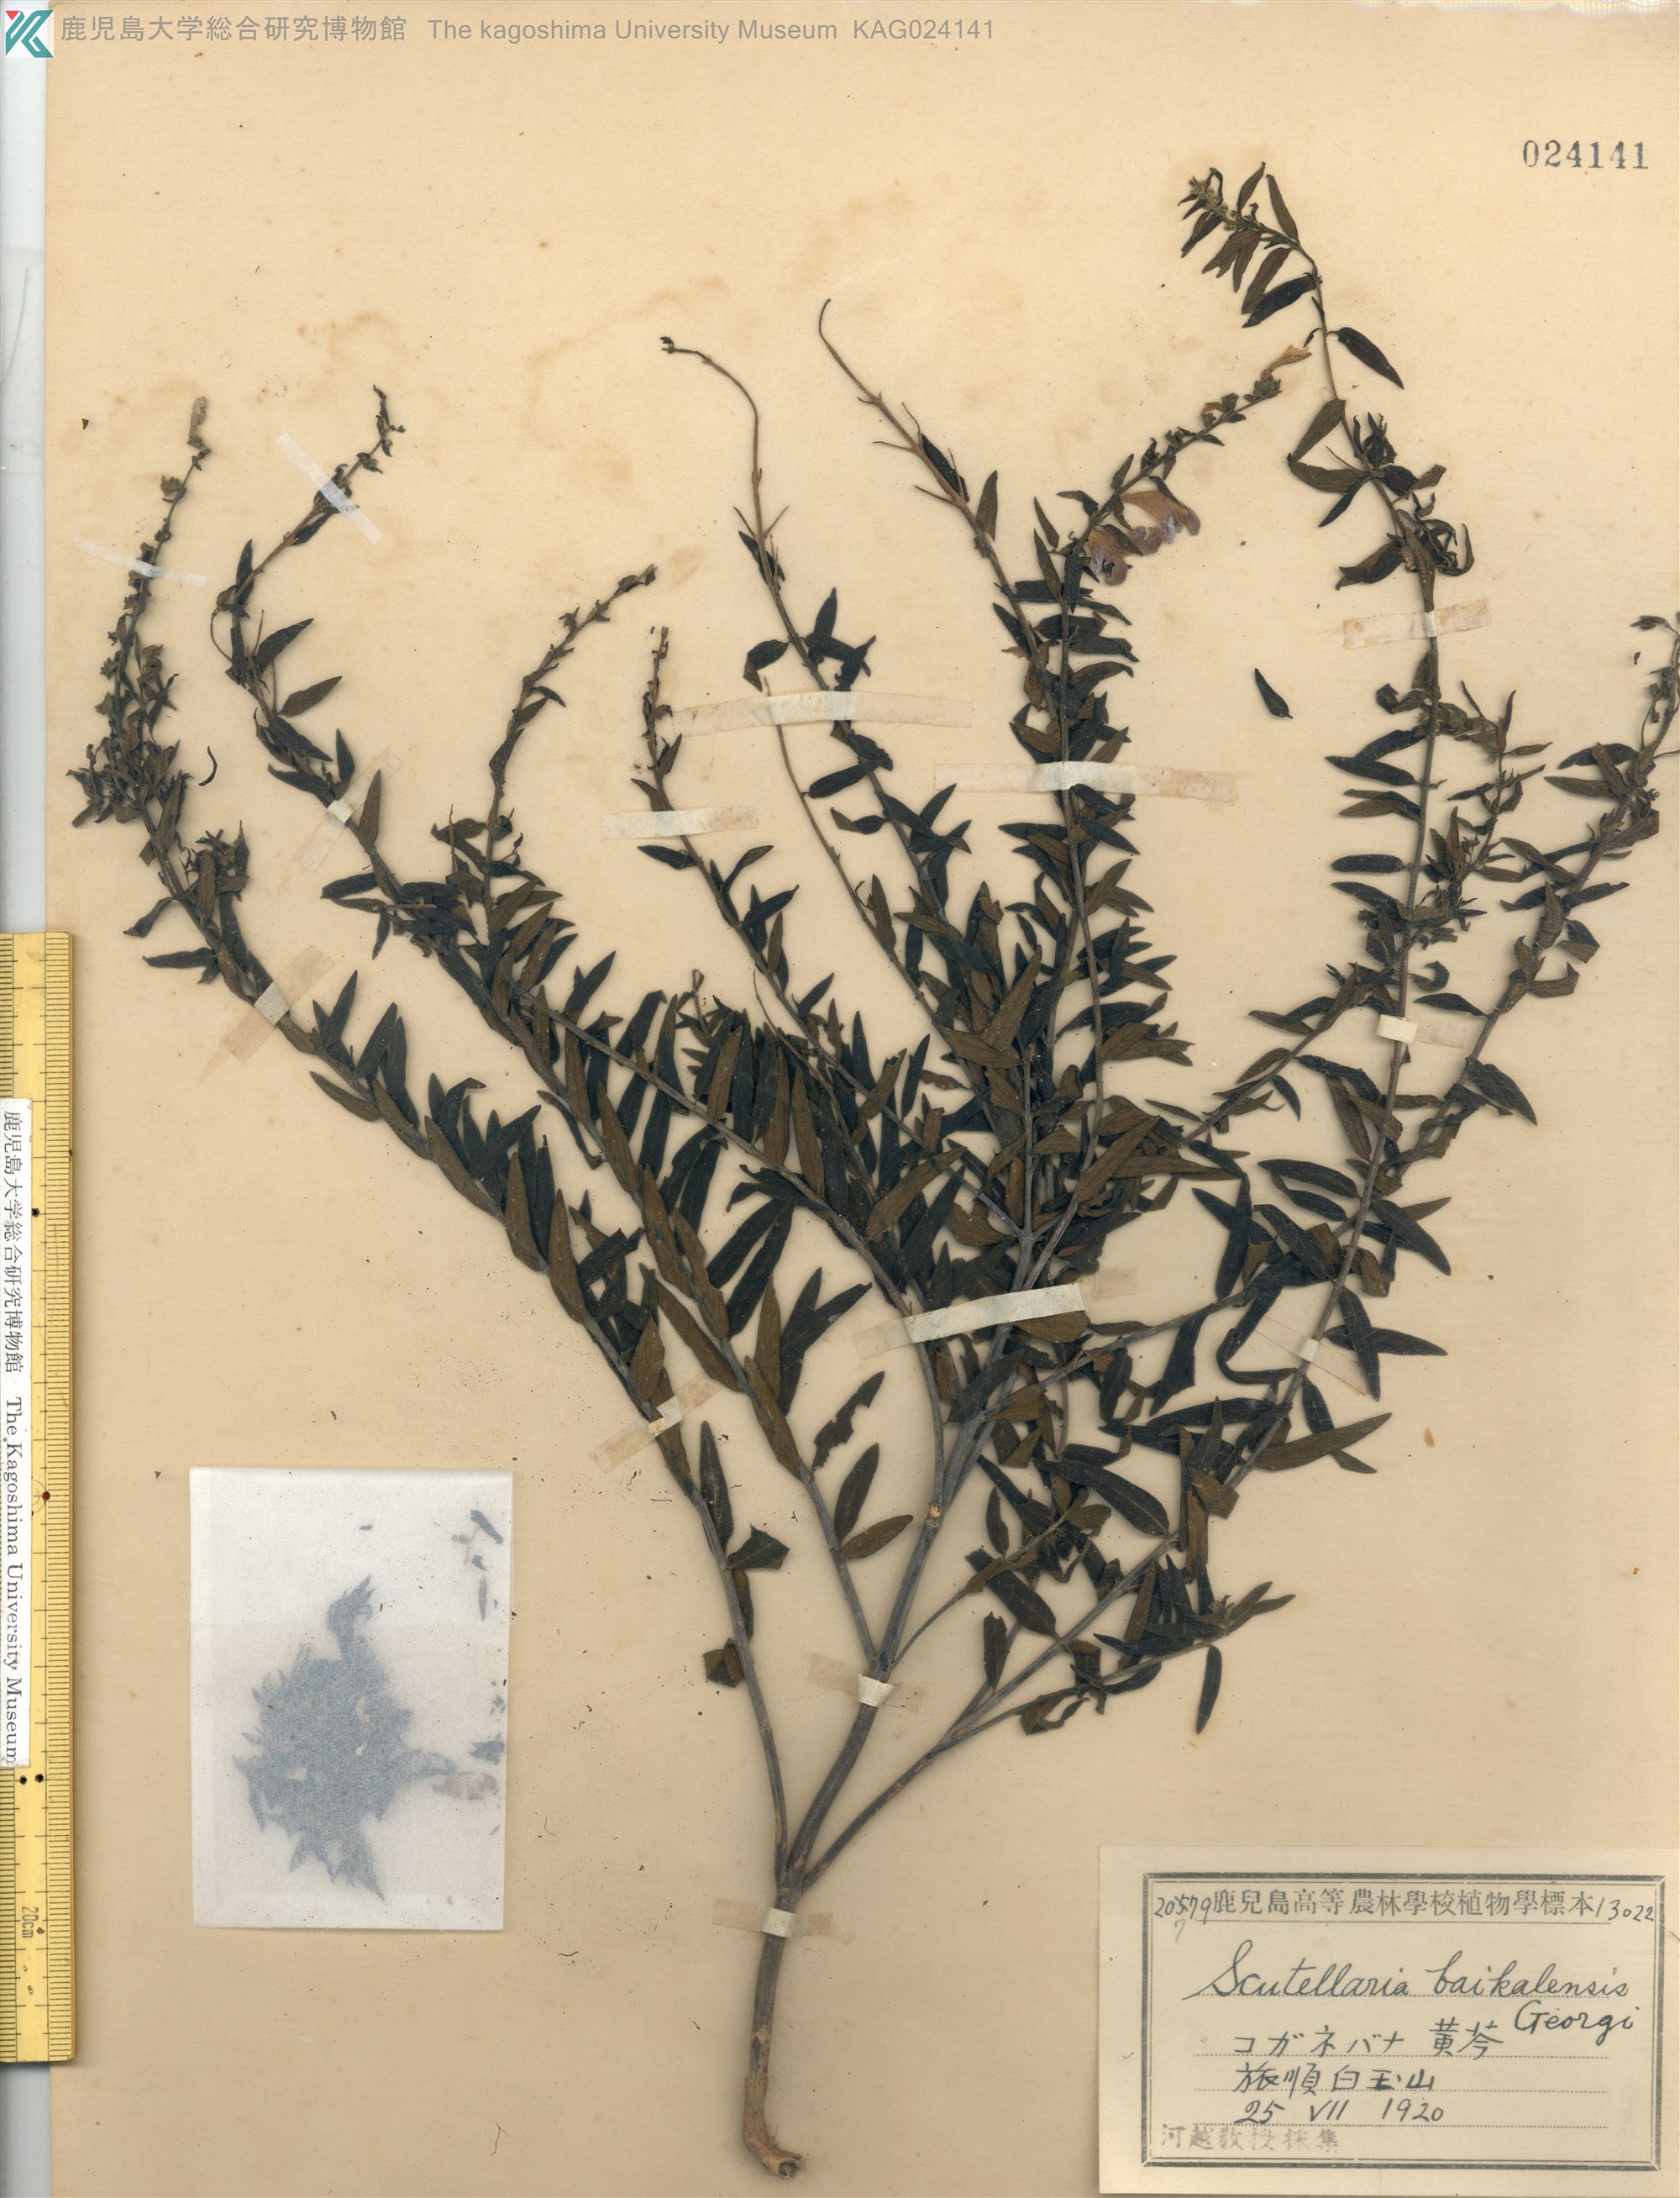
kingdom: Plantae
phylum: Tracheophyta
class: Magnoliopsida
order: Lamiales
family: Lamiaceae
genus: Scutellaria
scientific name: Scutellaria baicalensis
